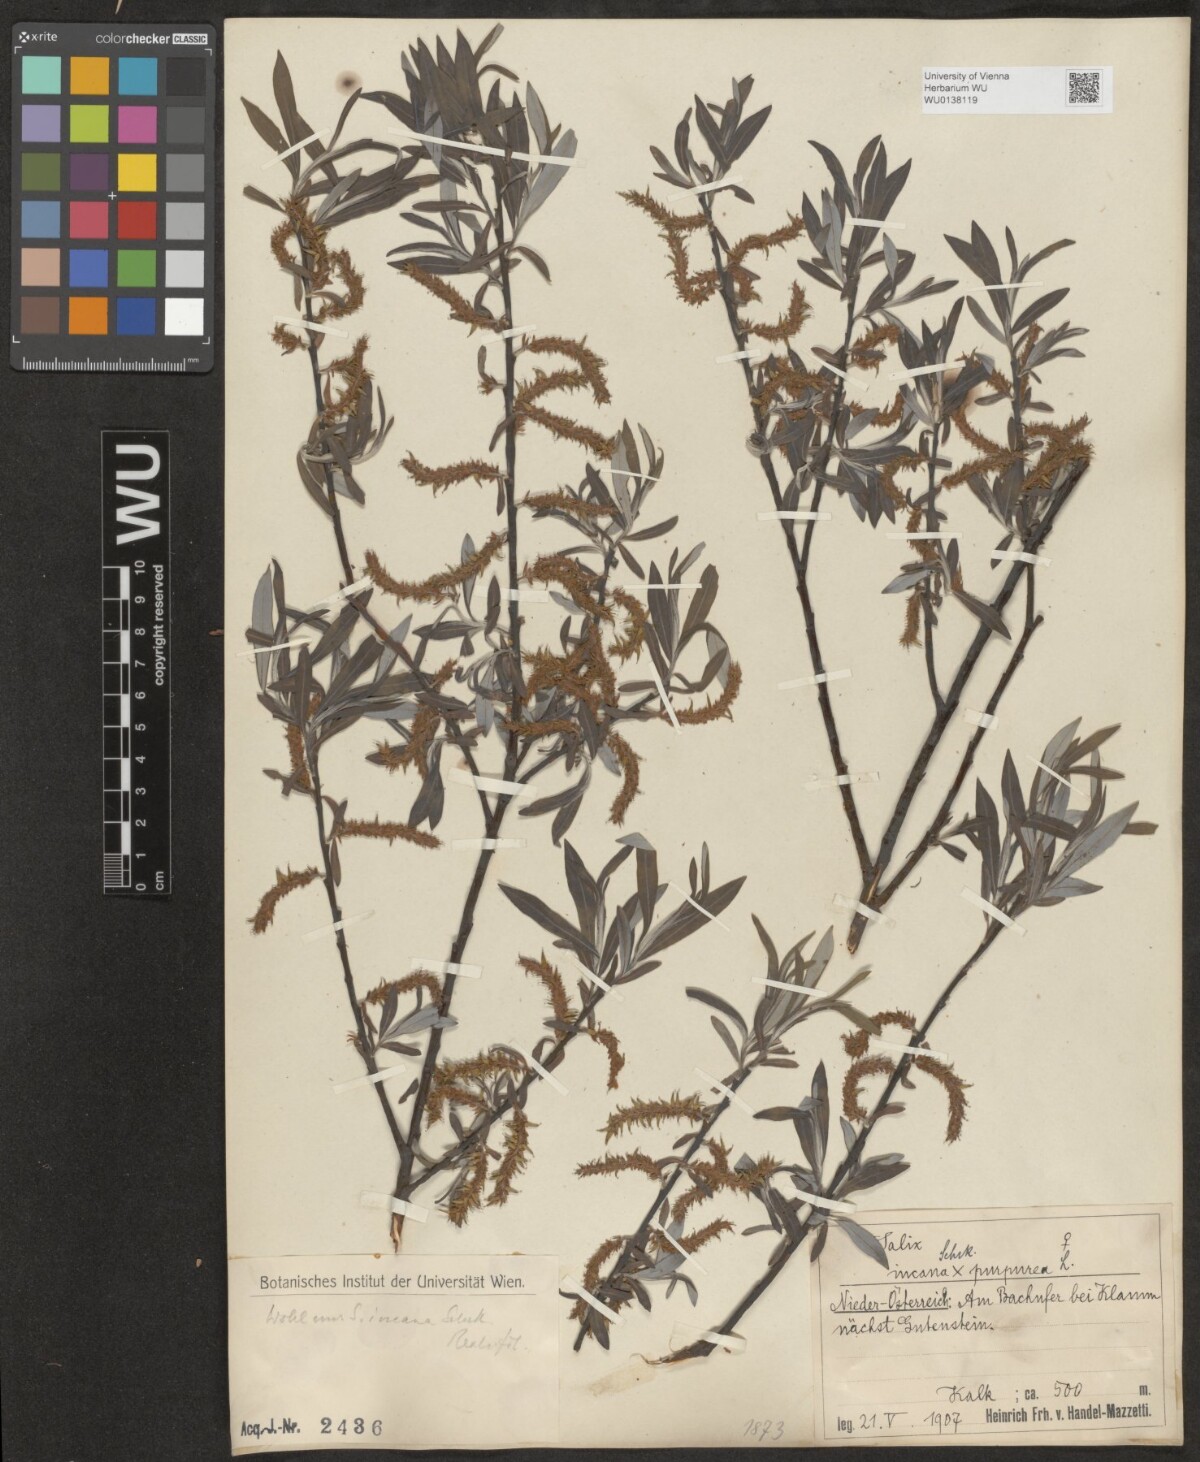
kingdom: Plantae
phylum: Tracheophyta
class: Magnoliopsida
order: Malpighiales
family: Salicaceae
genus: Salix
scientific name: Salix eleagnos
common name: Elaeagnus willow
